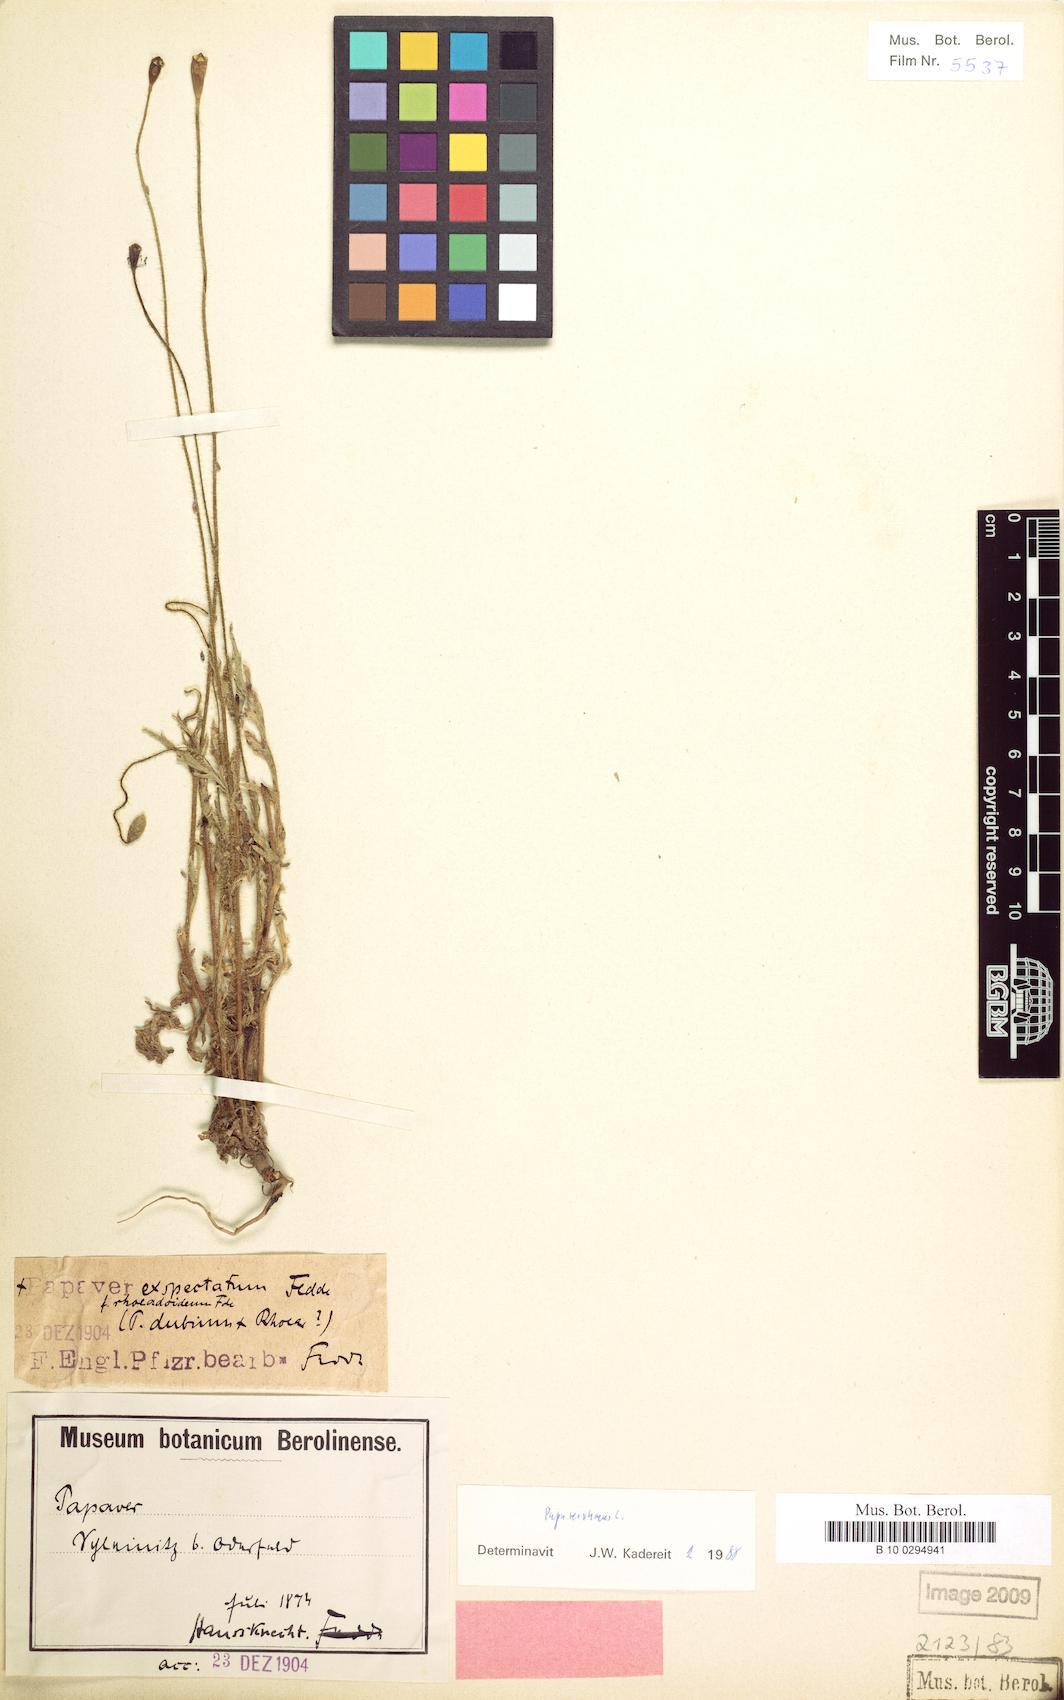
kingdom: Plantae
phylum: Tracheophyta
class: Magnoliopsida
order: Ranunculales
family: Papaveraceae
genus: Papaver
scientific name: Papaver rhoeas
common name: Corn poppy
